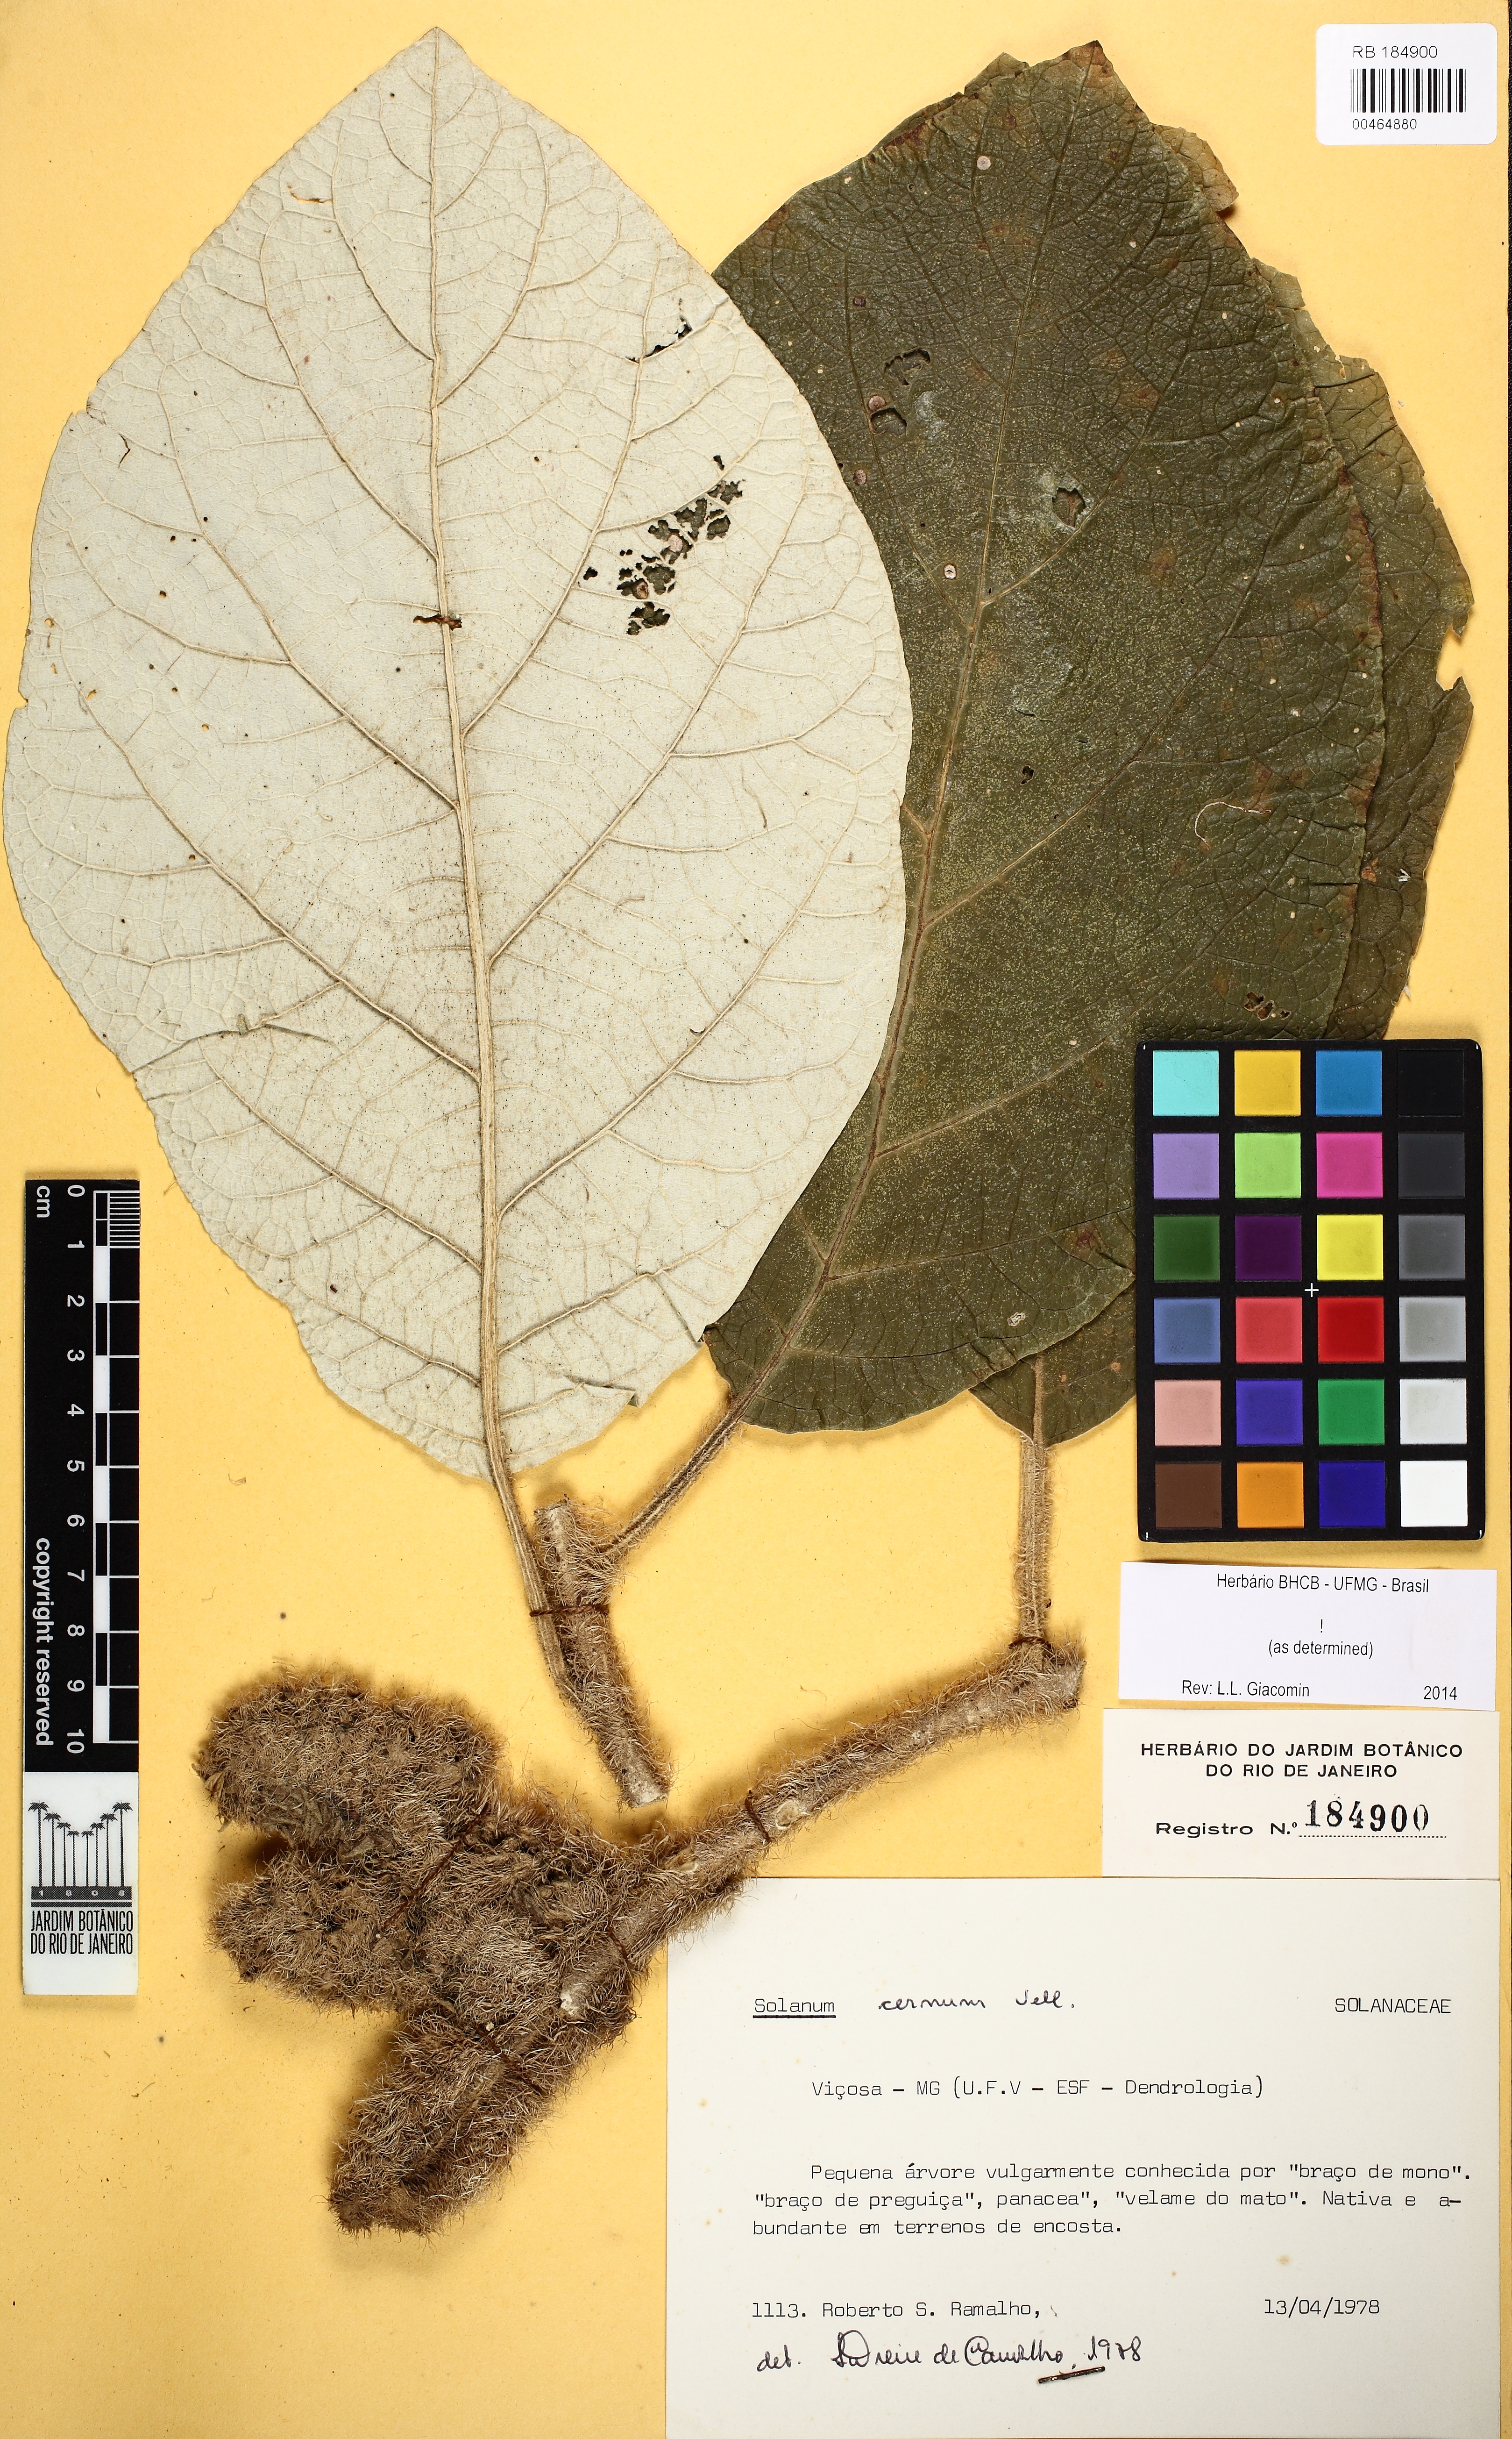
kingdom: Plantae
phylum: Tracheophyta
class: Magnoliopsida
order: Solanales
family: Solanaceae
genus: Solanum
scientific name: Solanum cernuum
